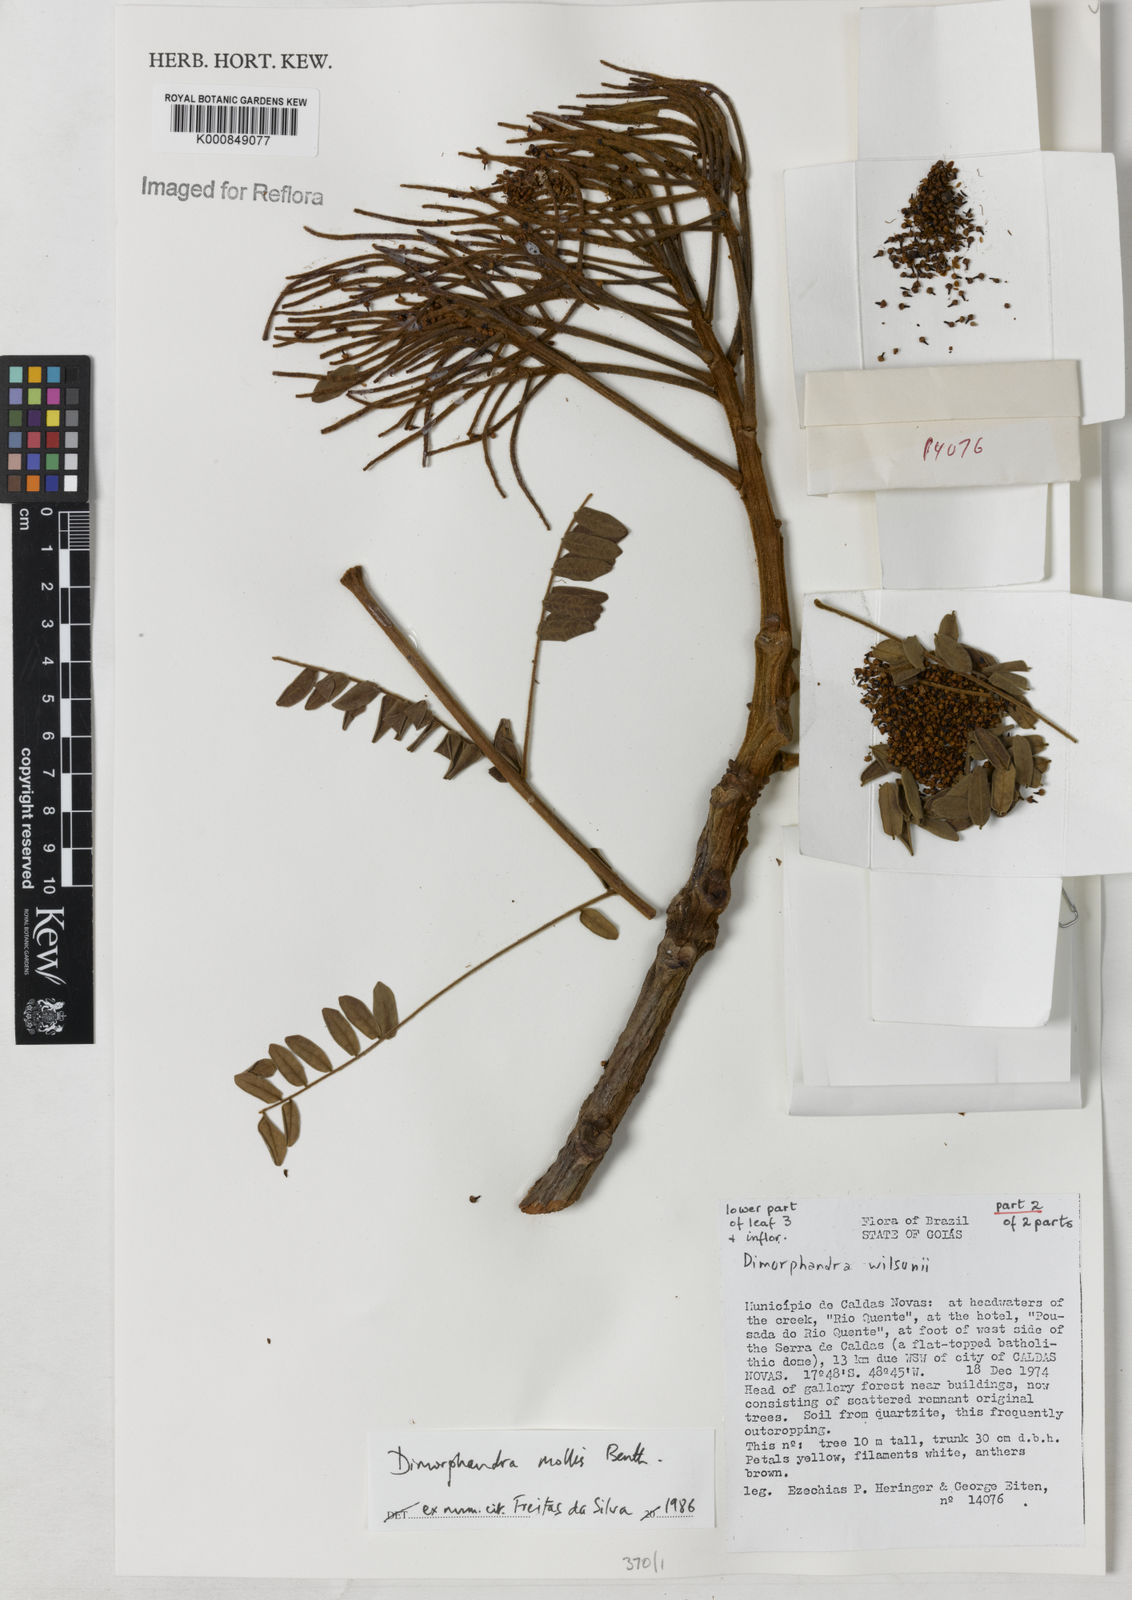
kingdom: Plantae
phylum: Tracheophyta
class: Magnoliopsida
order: Fabales
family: Fabaceae
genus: Dimorphandra
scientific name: Dimorphandra mollis
